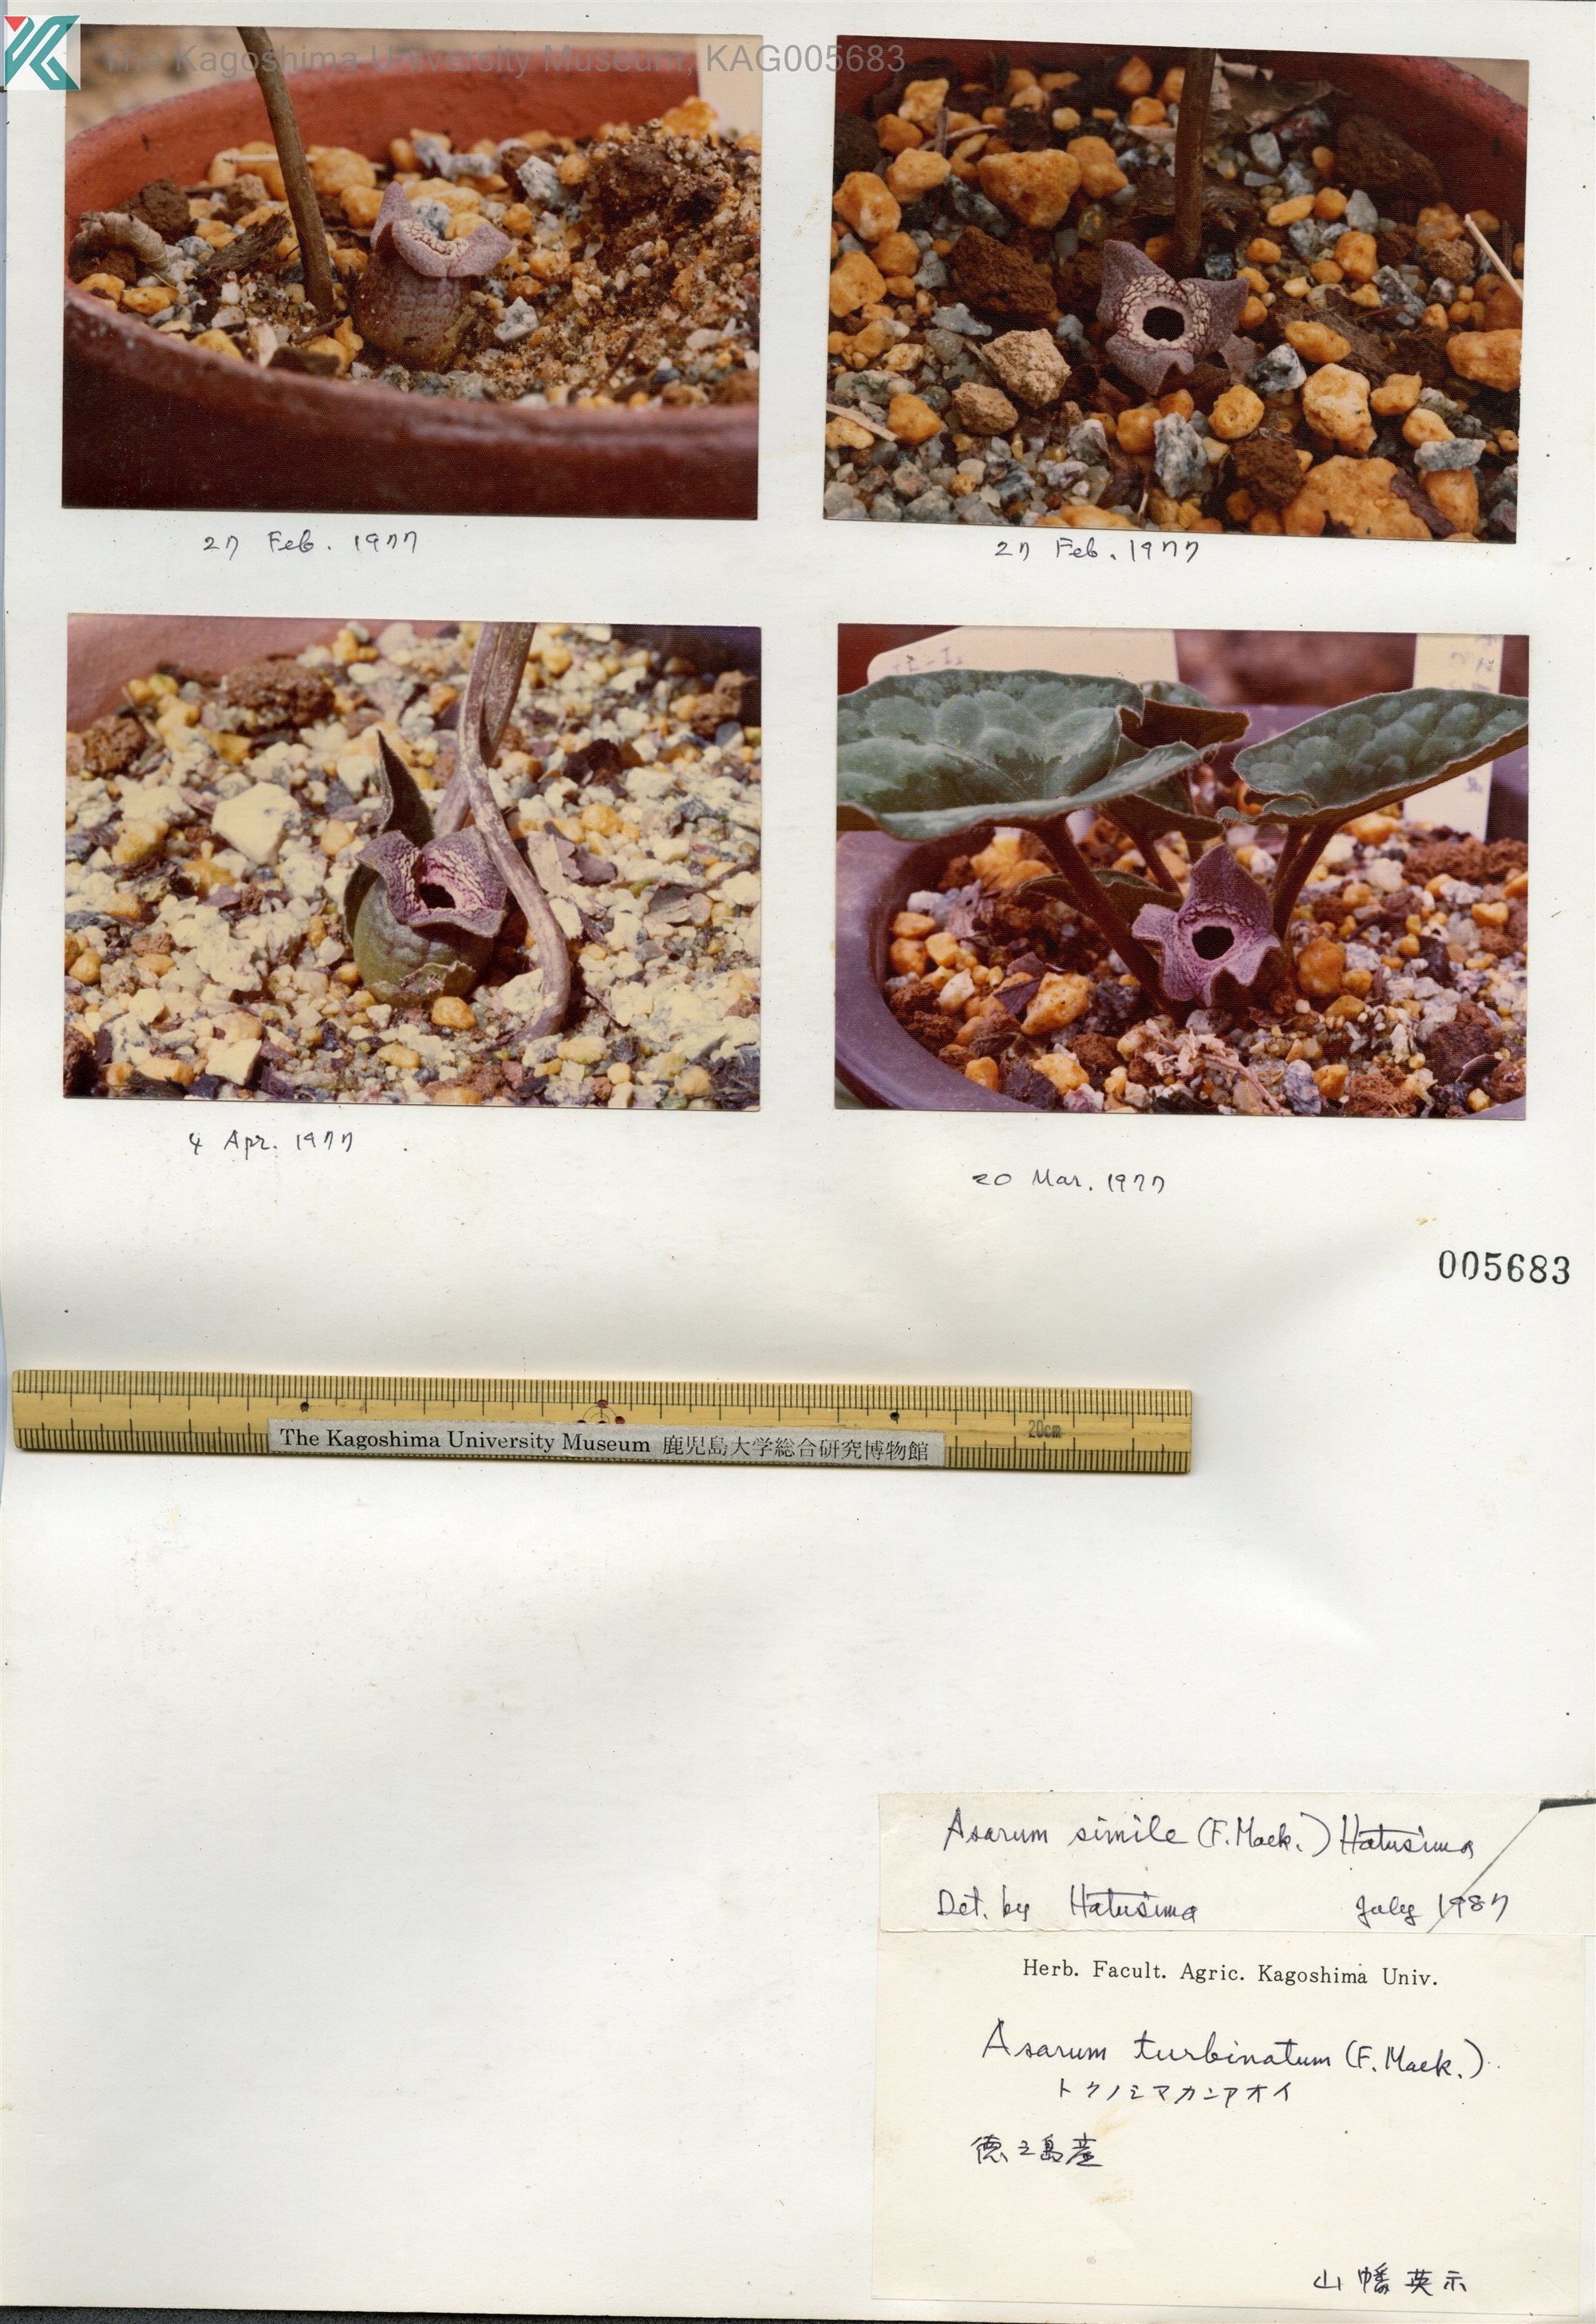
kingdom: Plantae
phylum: Tracheophyta
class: Magnoliopsida
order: Piperales
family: Aristolochiaceae
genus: Asarum
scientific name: Asarum simile
